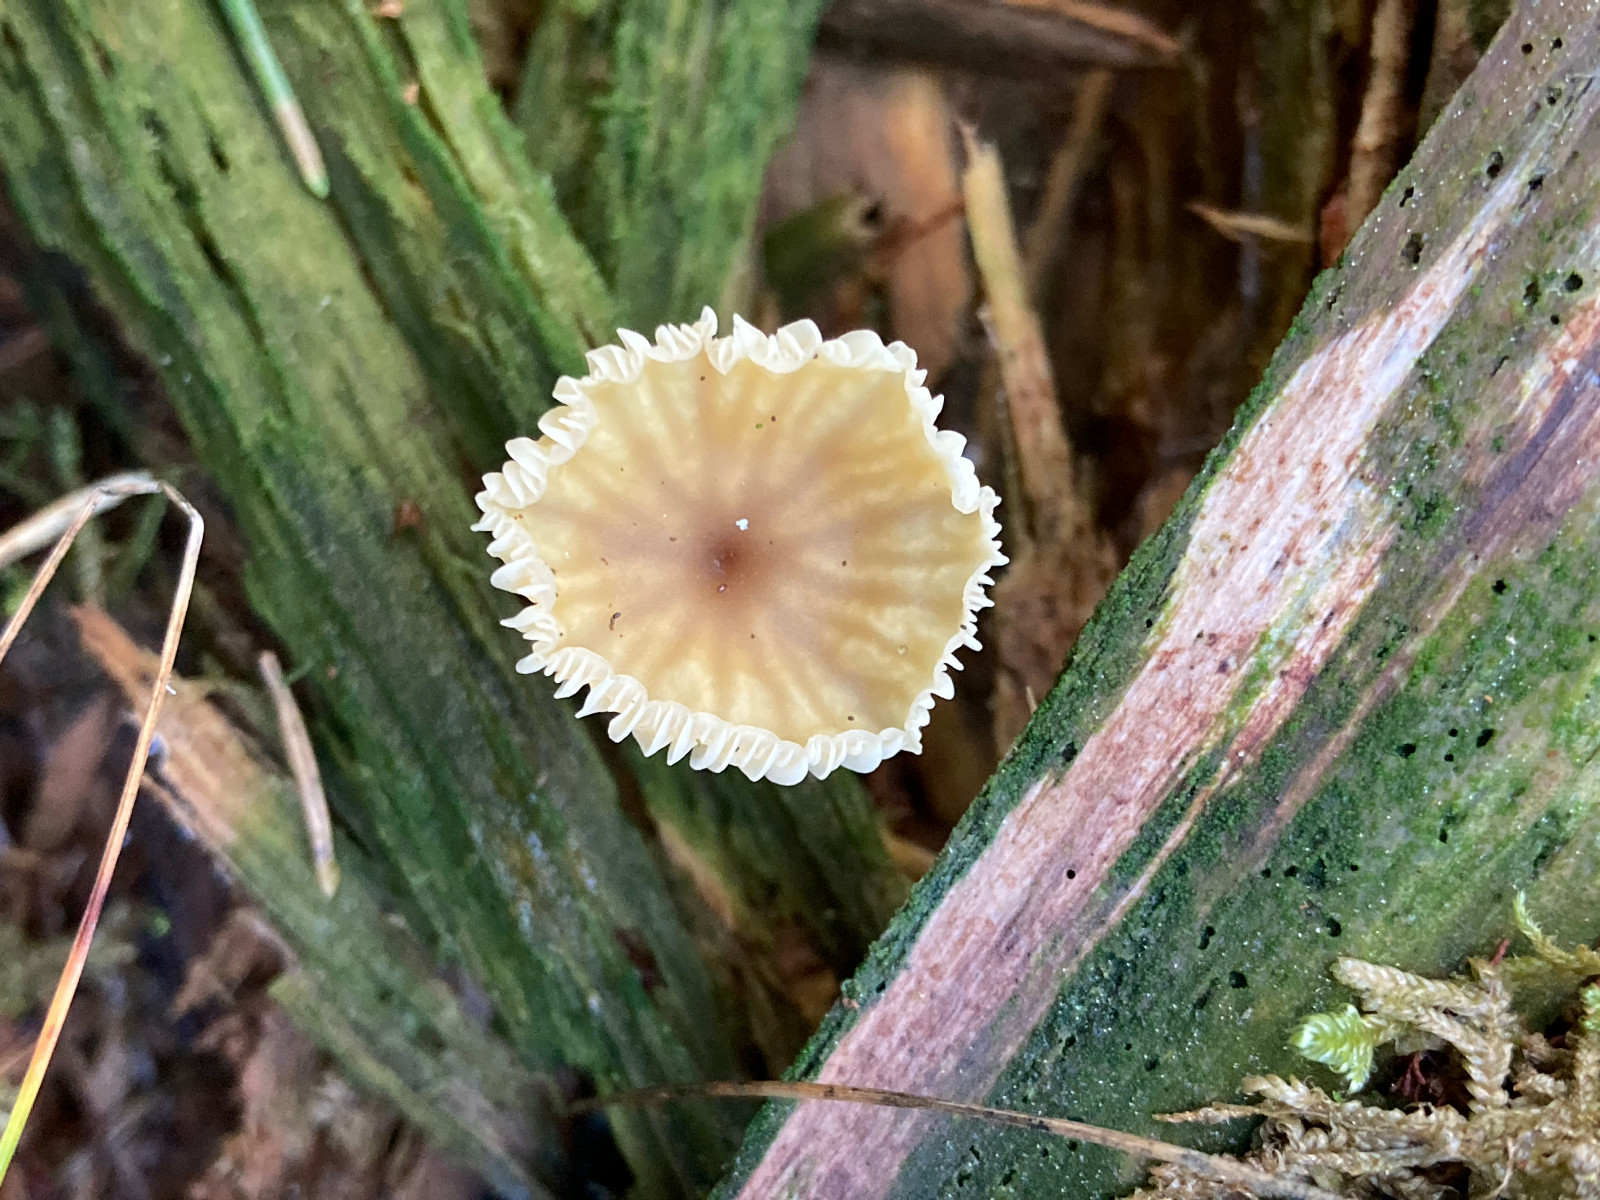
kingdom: Fungi
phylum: Basidiomycota
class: Agaricomycetes
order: Agaricales
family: Hygrophoraceae
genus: Lichenomphalia
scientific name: Lichenomphalia umbellifera
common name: tørve-lavhat
